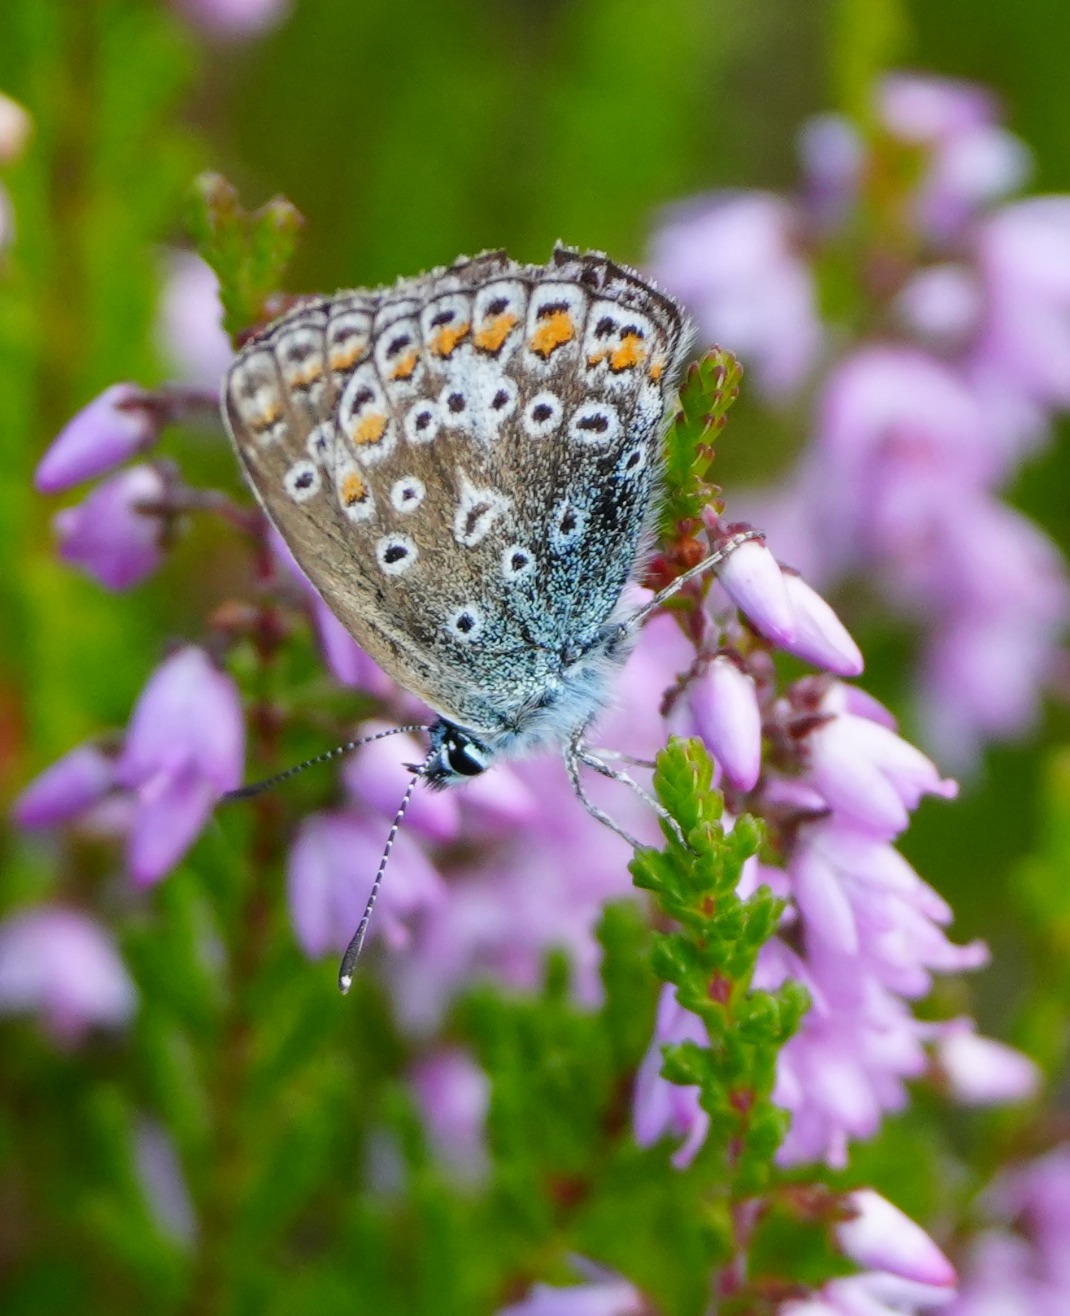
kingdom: Animalia
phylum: Arthropoda
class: Insecta
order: Lepidoptera
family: Lycaenidae
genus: Polyommatus
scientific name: Polyommatus icarus
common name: Almindelig blåfugl
